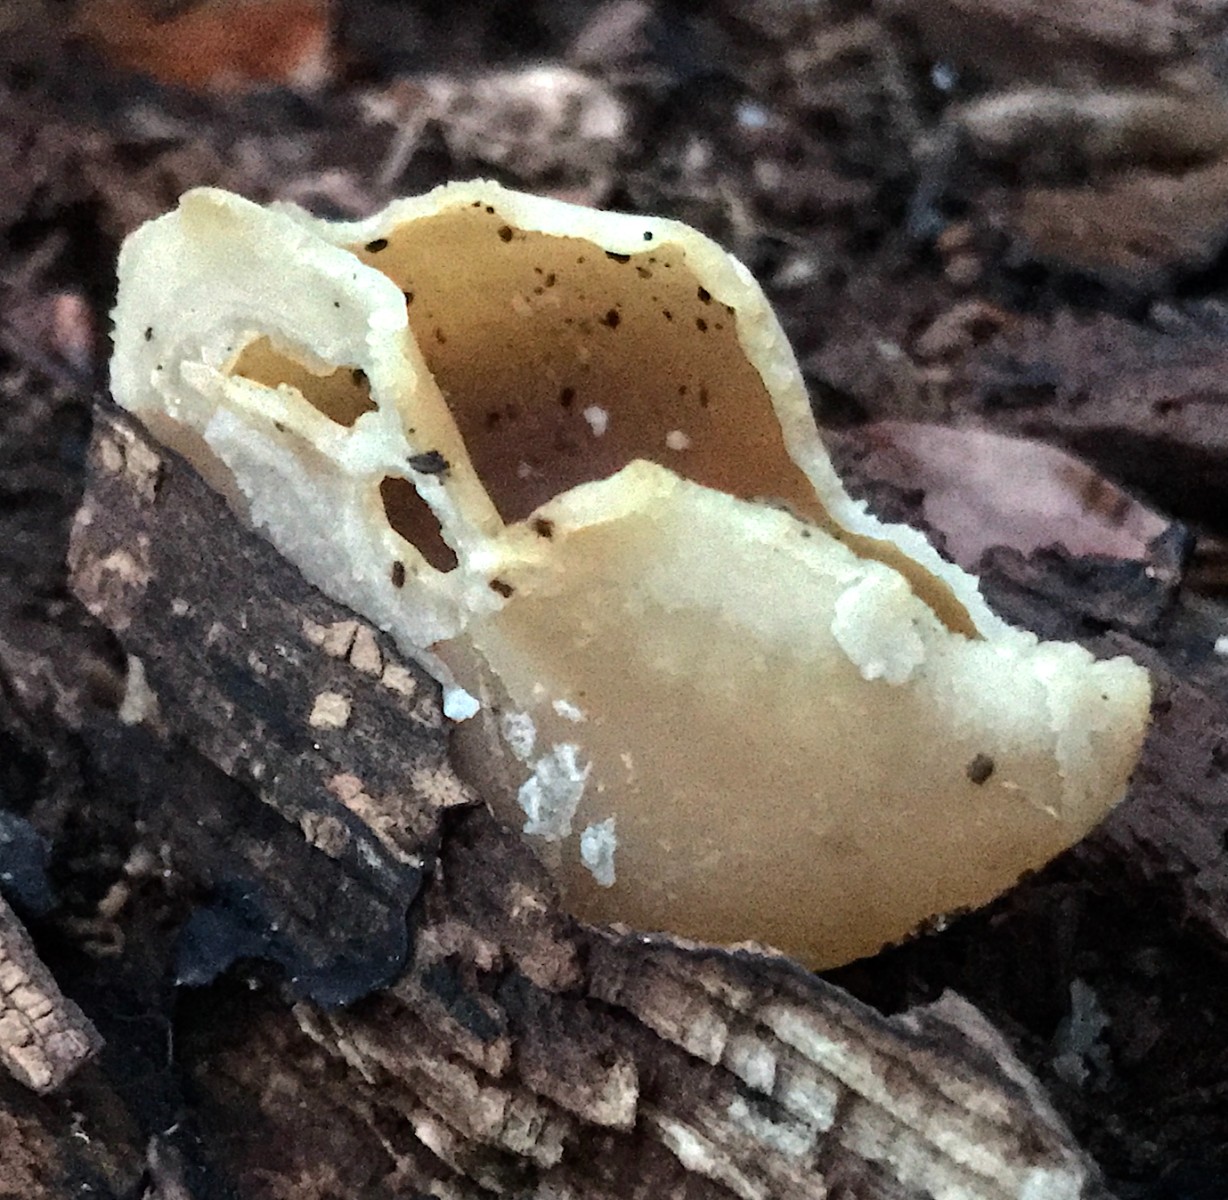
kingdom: Fungi
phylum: Ascomycota
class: Pezizomycetes
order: Pezizales
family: Pezizaceae
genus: Peziza
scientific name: Peziza varia
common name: Ved-bægersvamp
